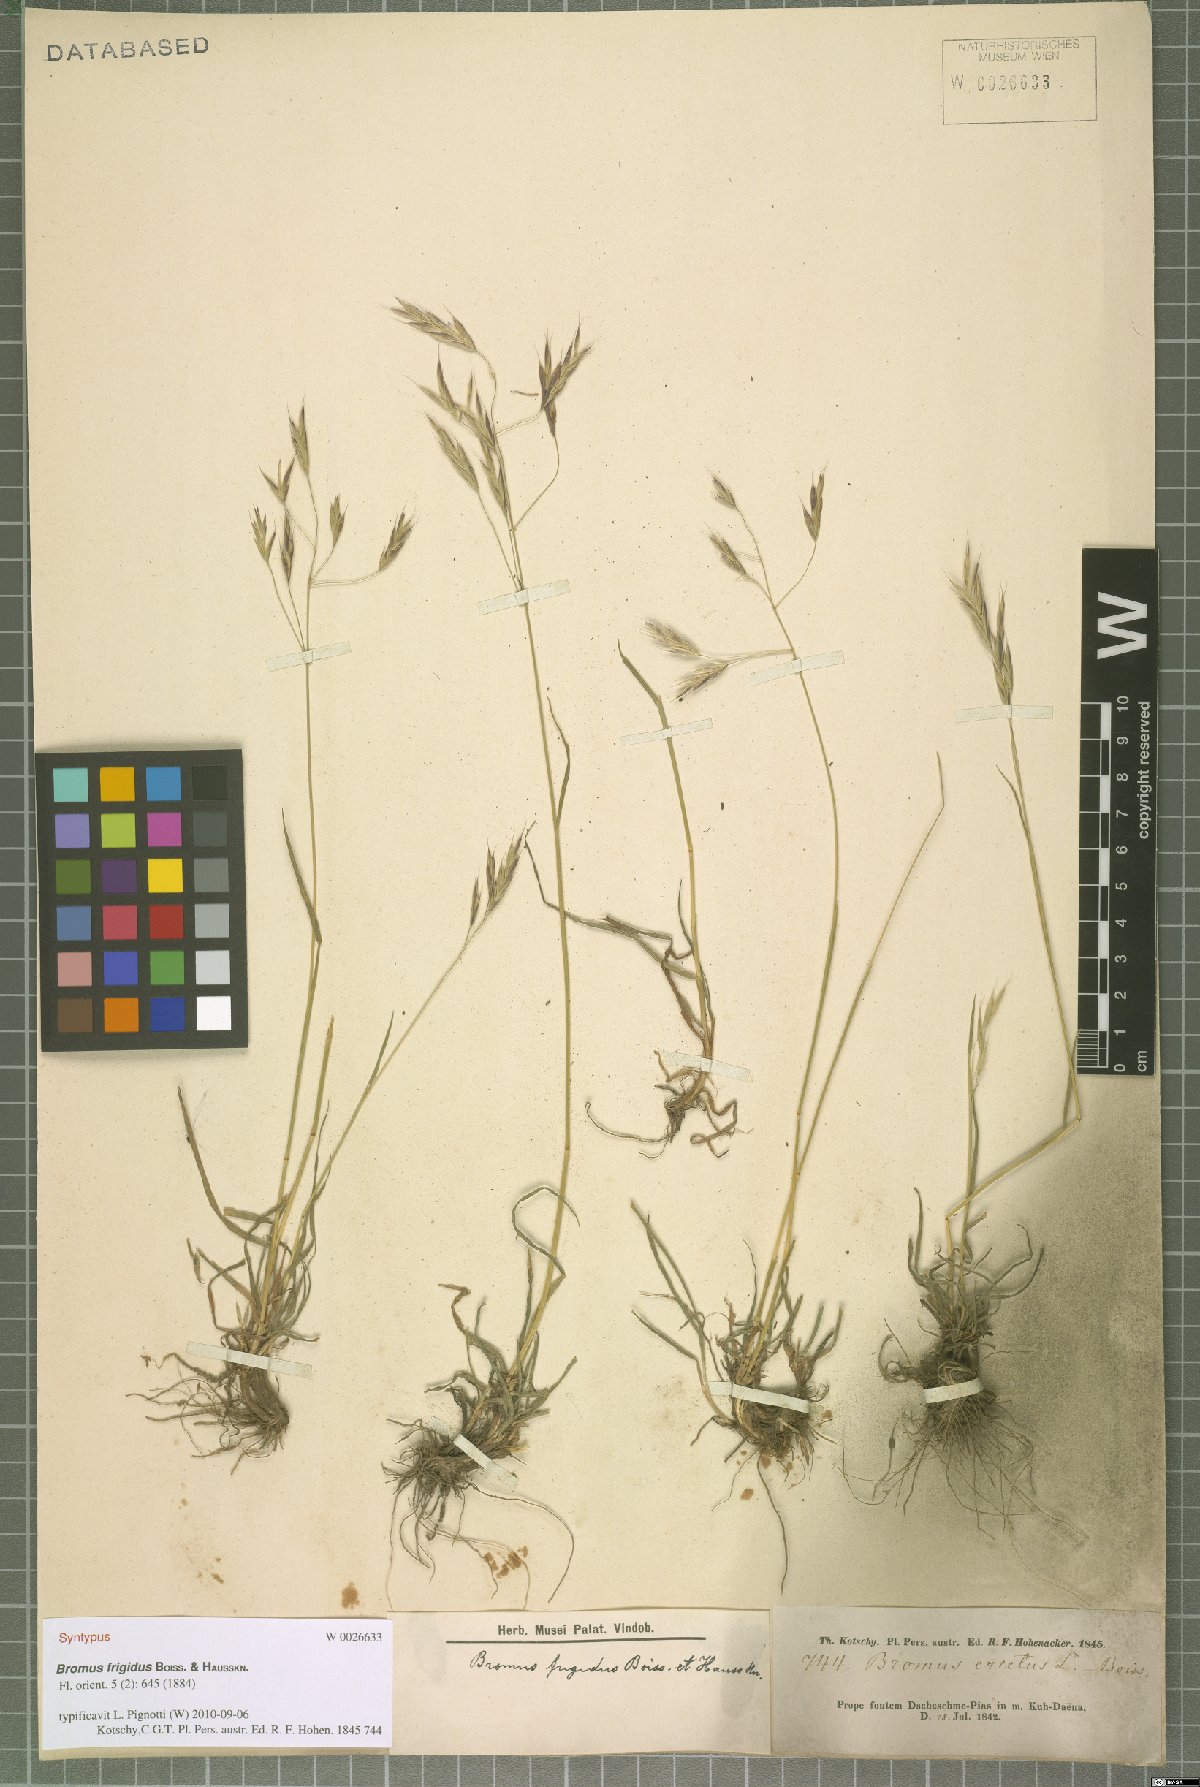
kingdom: Plantae
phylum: Tracheophyta
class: Liliopsida
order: Poales
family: Poaceae
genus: Bromus
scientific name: Bromus frigidus
